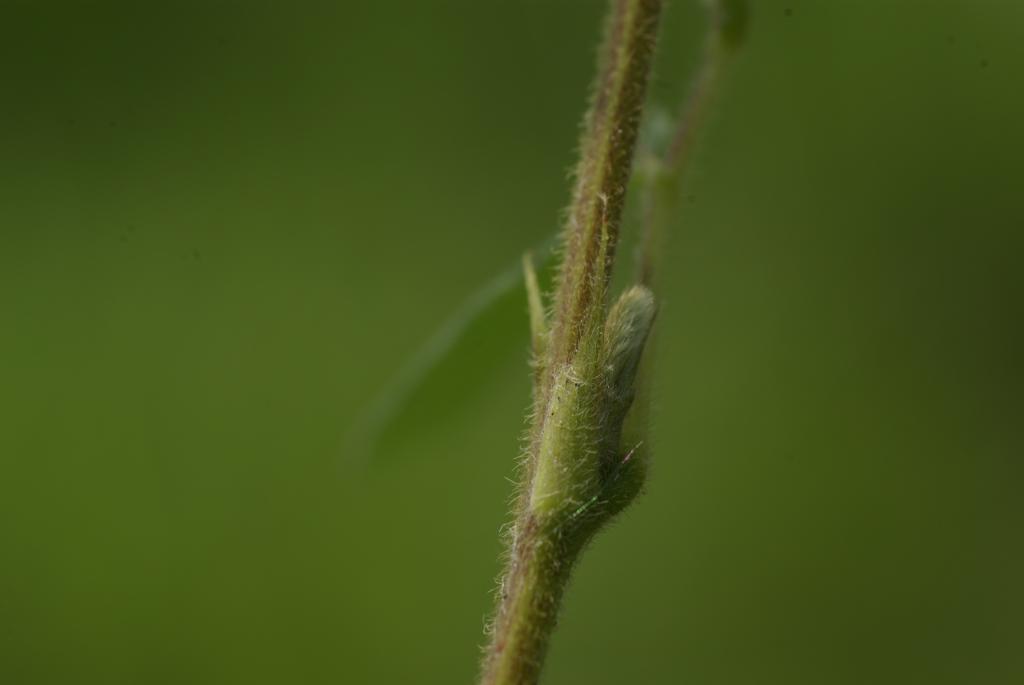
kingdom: Plantae
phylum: Tracheophyta
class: Magnoliopsida
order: Fabales
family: Fabaceae
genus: Pycnospora
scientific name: Pycnospora lutescens
